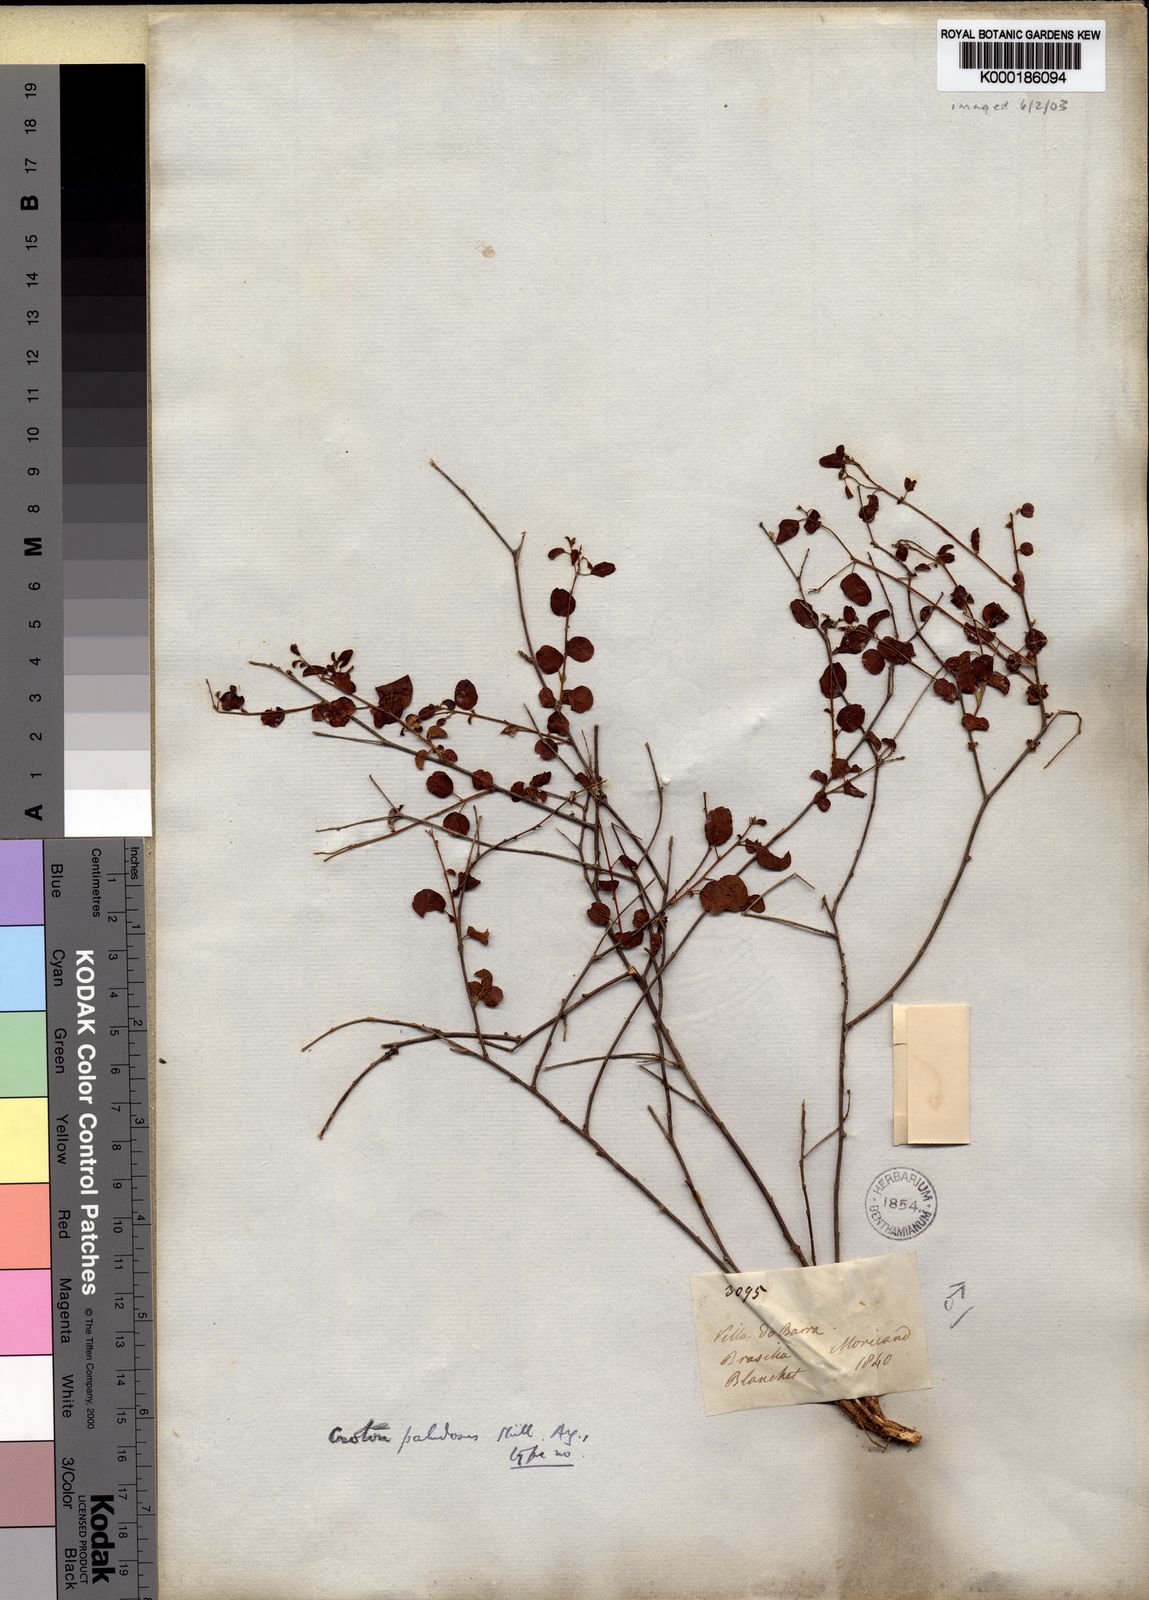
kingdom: Plantae
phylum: Tracheophyta
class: Magnoliopsida
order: Malpighiales
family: Euphorbiaceae
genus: Croton
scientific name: Croton
